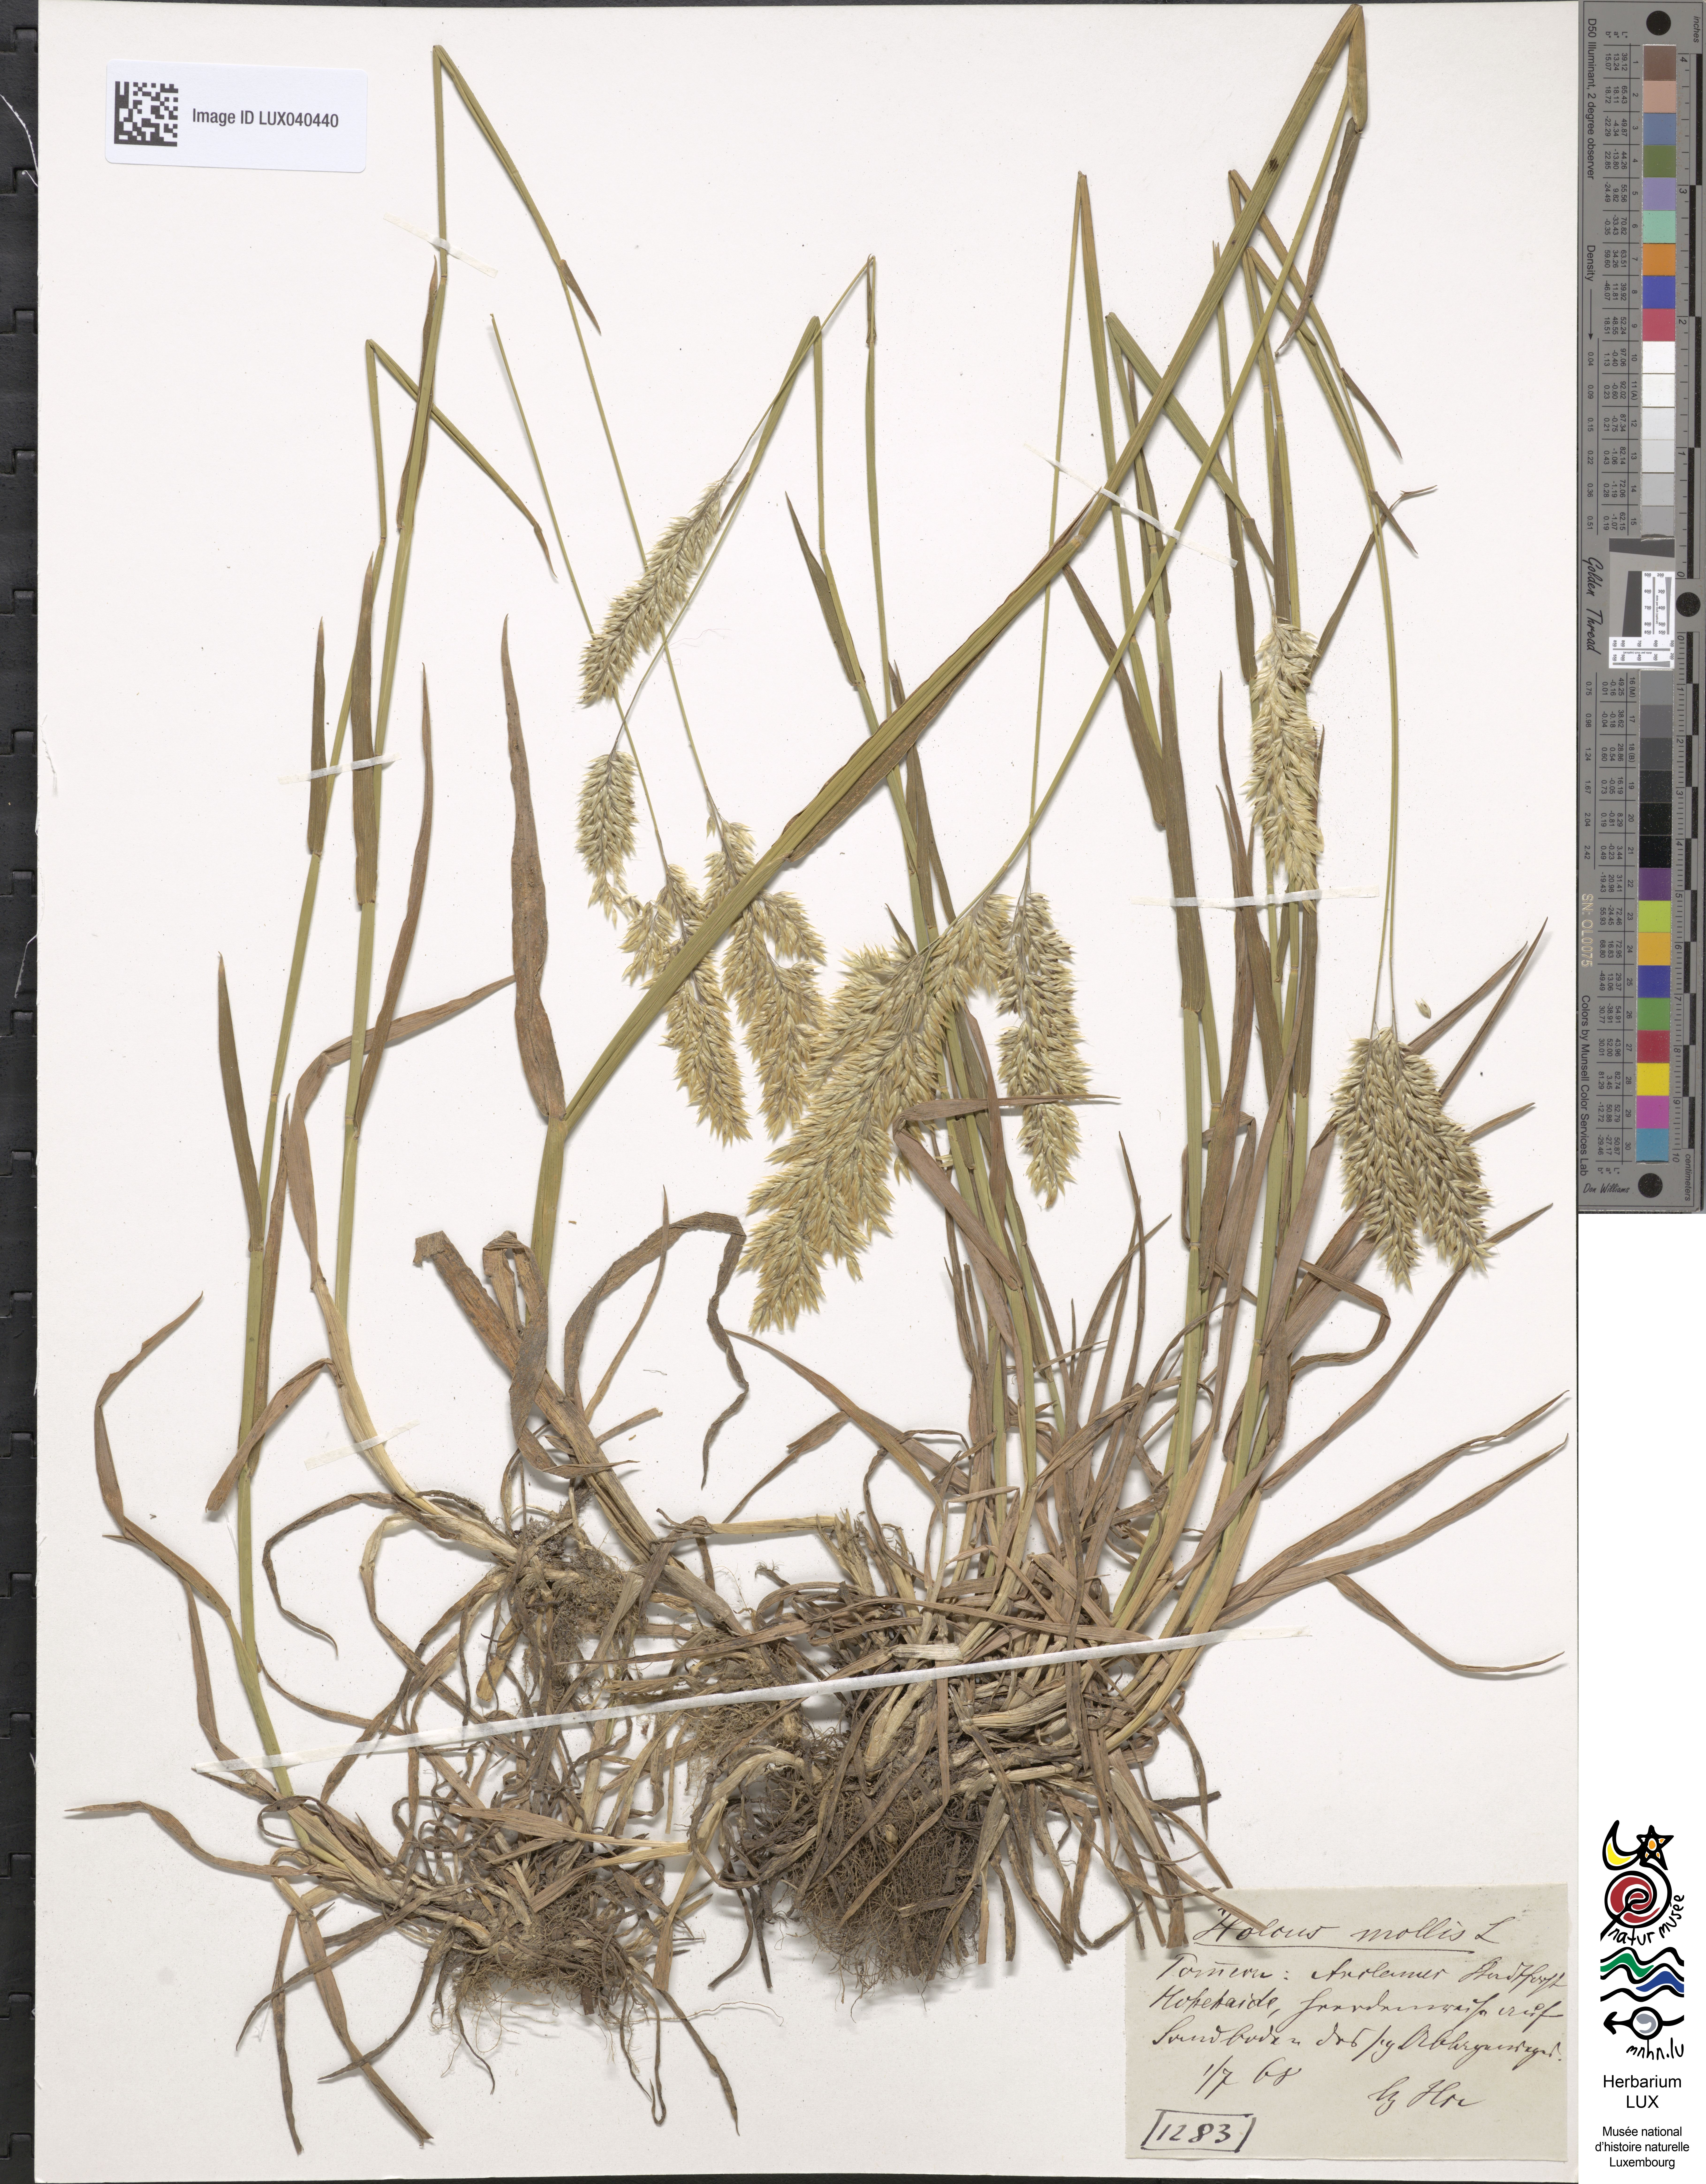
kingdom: Plantae
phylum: Tracheophyta
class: Liliopsida
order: Poales
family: Poaceae
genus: Holcus
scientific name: Holcus mollis
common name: Creeping velvetgrass
